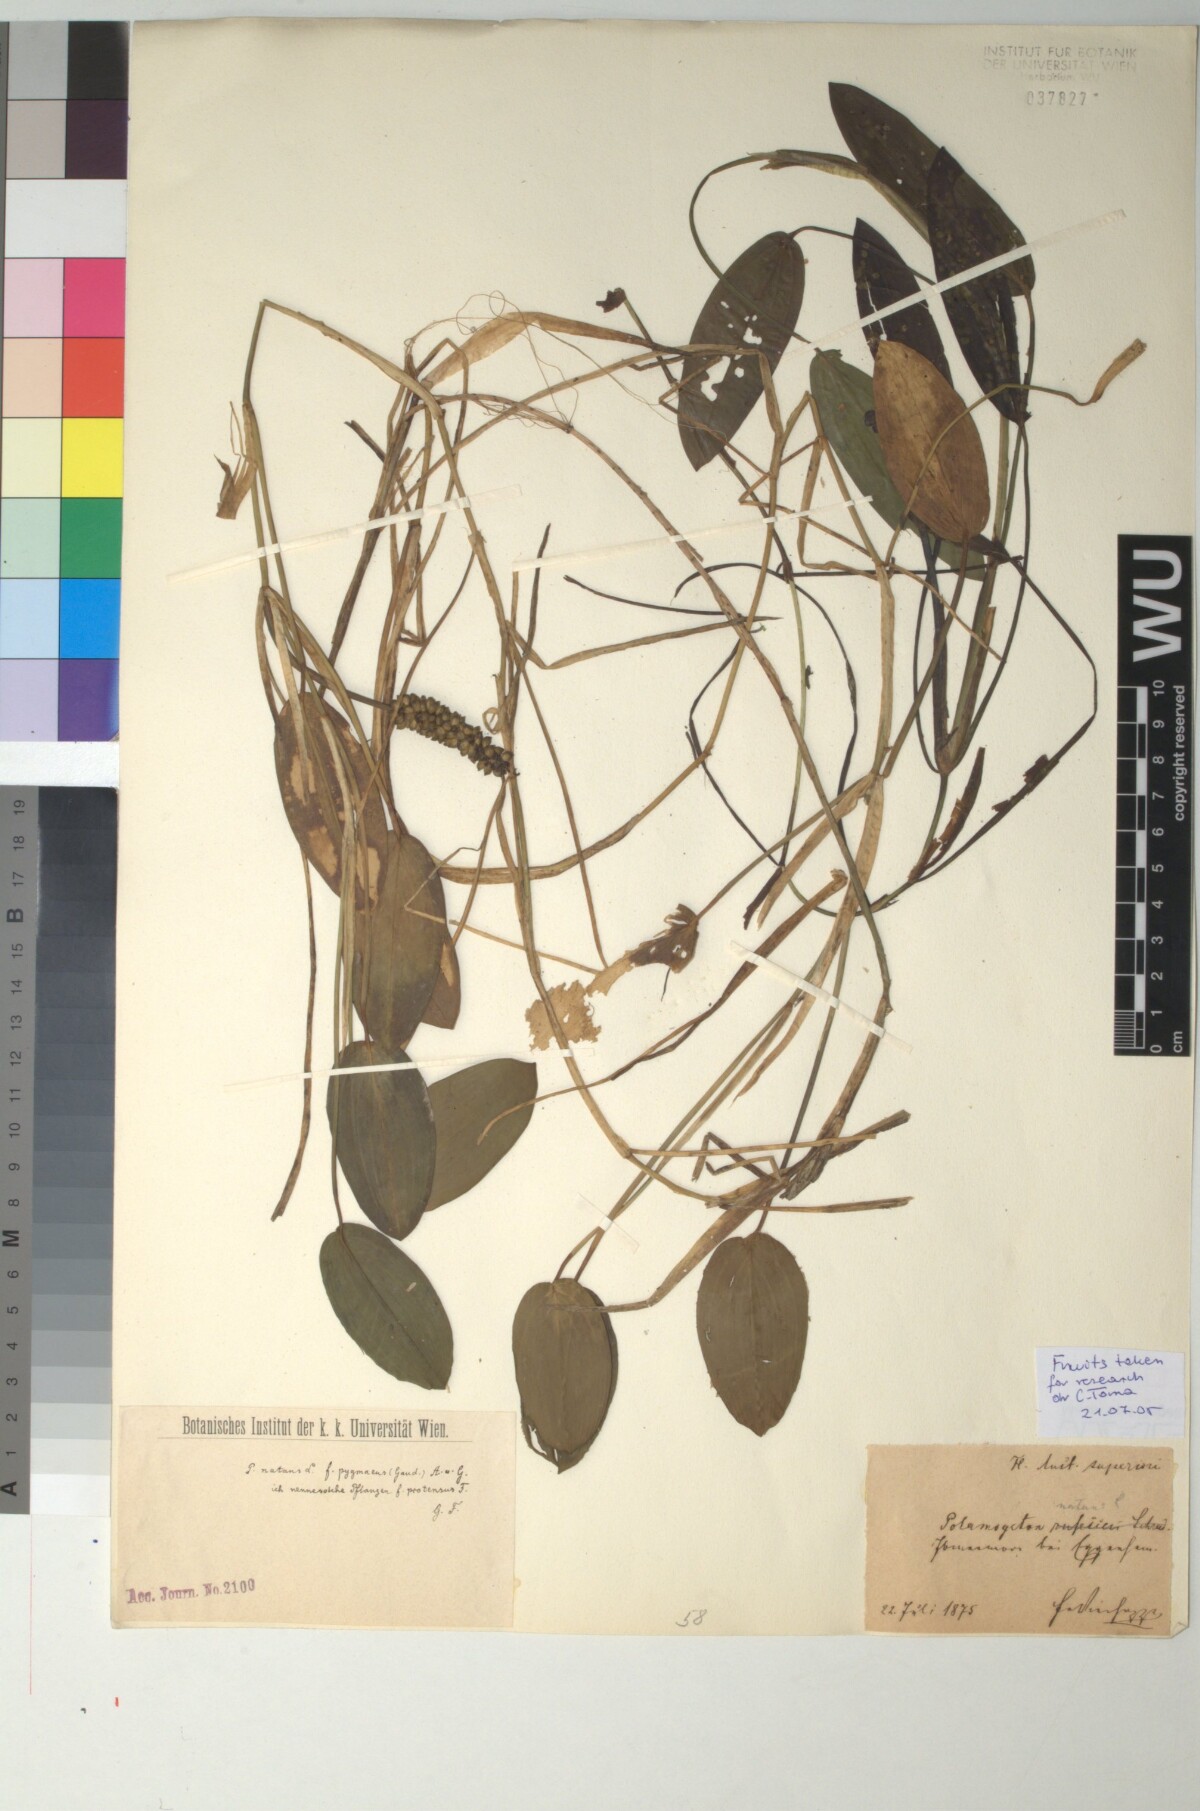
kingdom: Plantae
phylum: Tracheophyta
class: Liliopsida
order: Alismatales
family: Potamogetonaceae
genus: Potamogeton
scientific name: Potamogeton natans
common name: Broad-leaved pondweed
